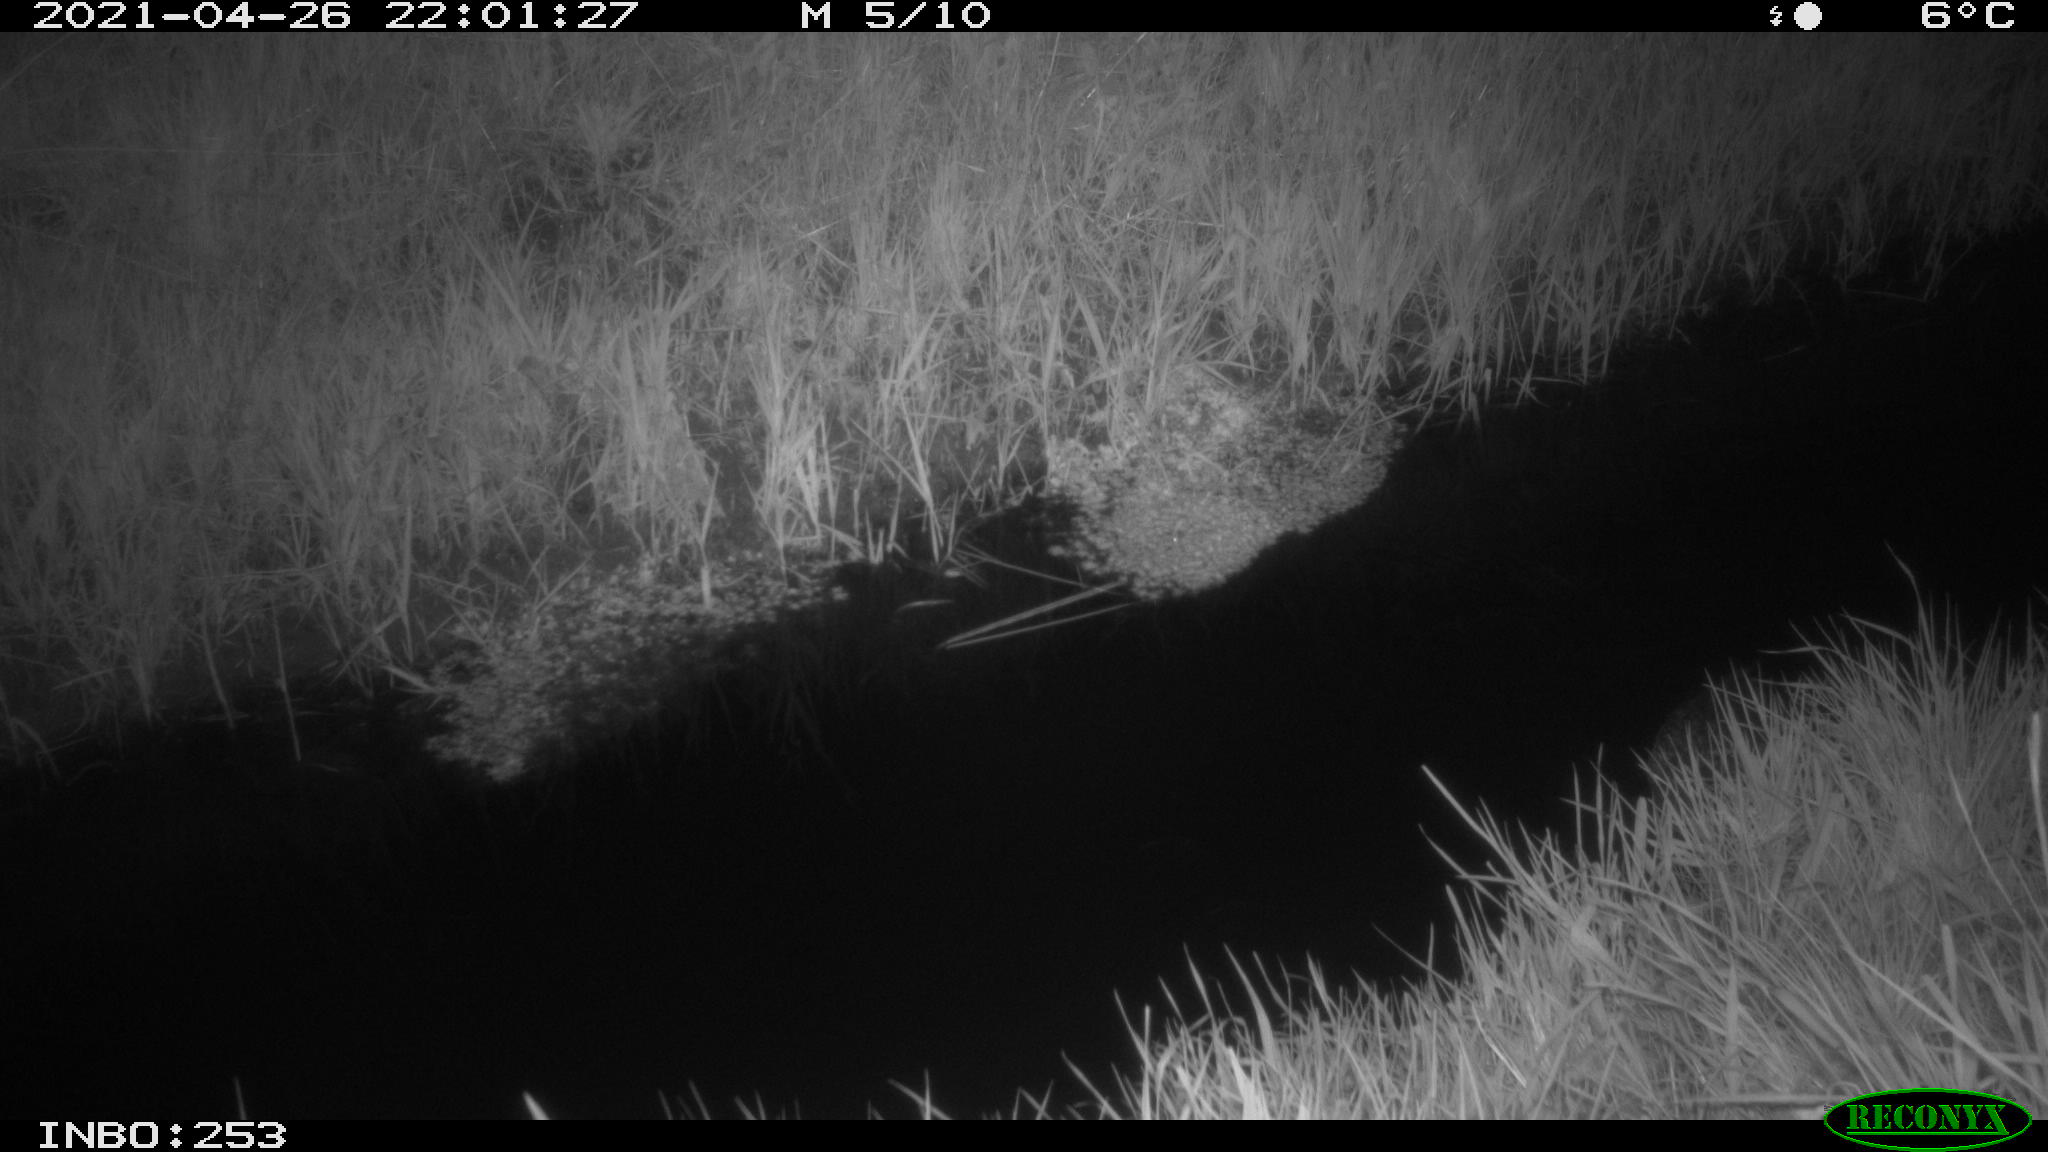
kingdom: Animalia
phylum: Chordata
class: Aves
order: Anseriformes
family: Anatidae
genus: Anas
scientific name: Anas platyrhynchos
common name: Mallard
